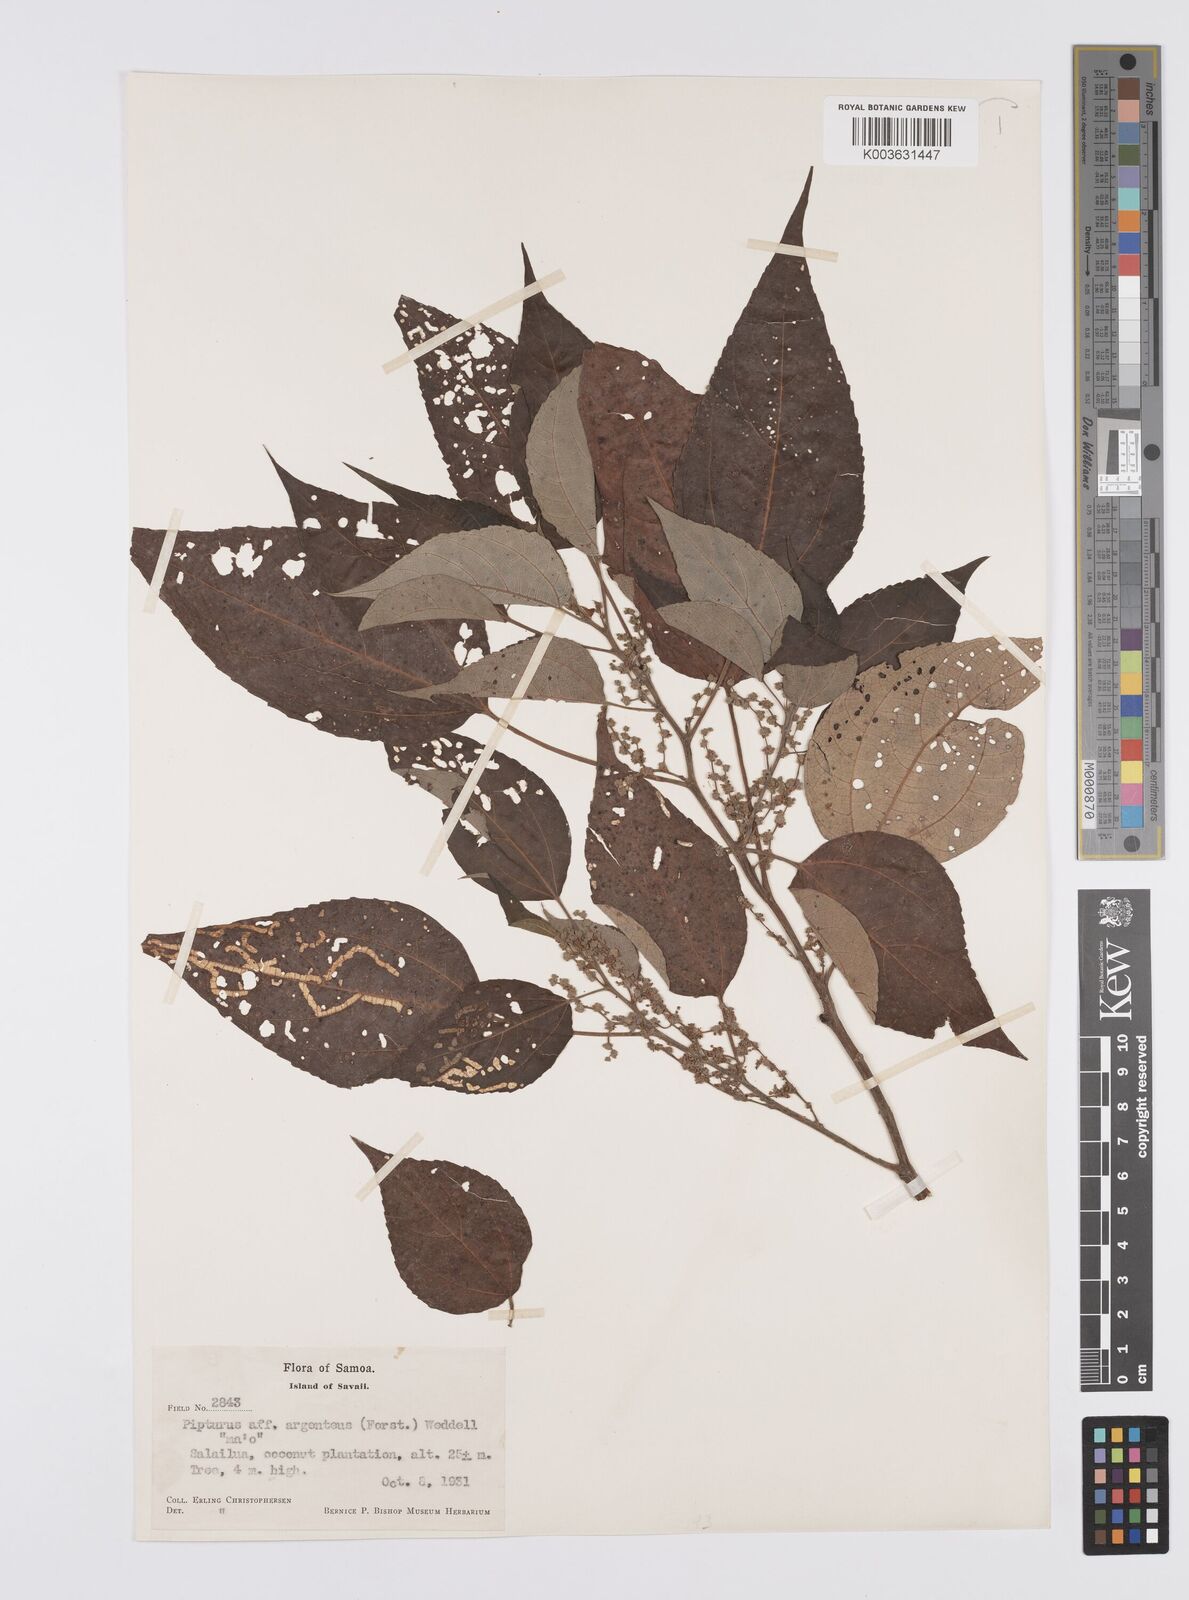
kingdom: Plantae
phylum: Tracheophyta
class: Magnoliopsida
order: Rosales
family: Urticaceae
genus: Pipturus
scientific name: Pipturus argenteus
